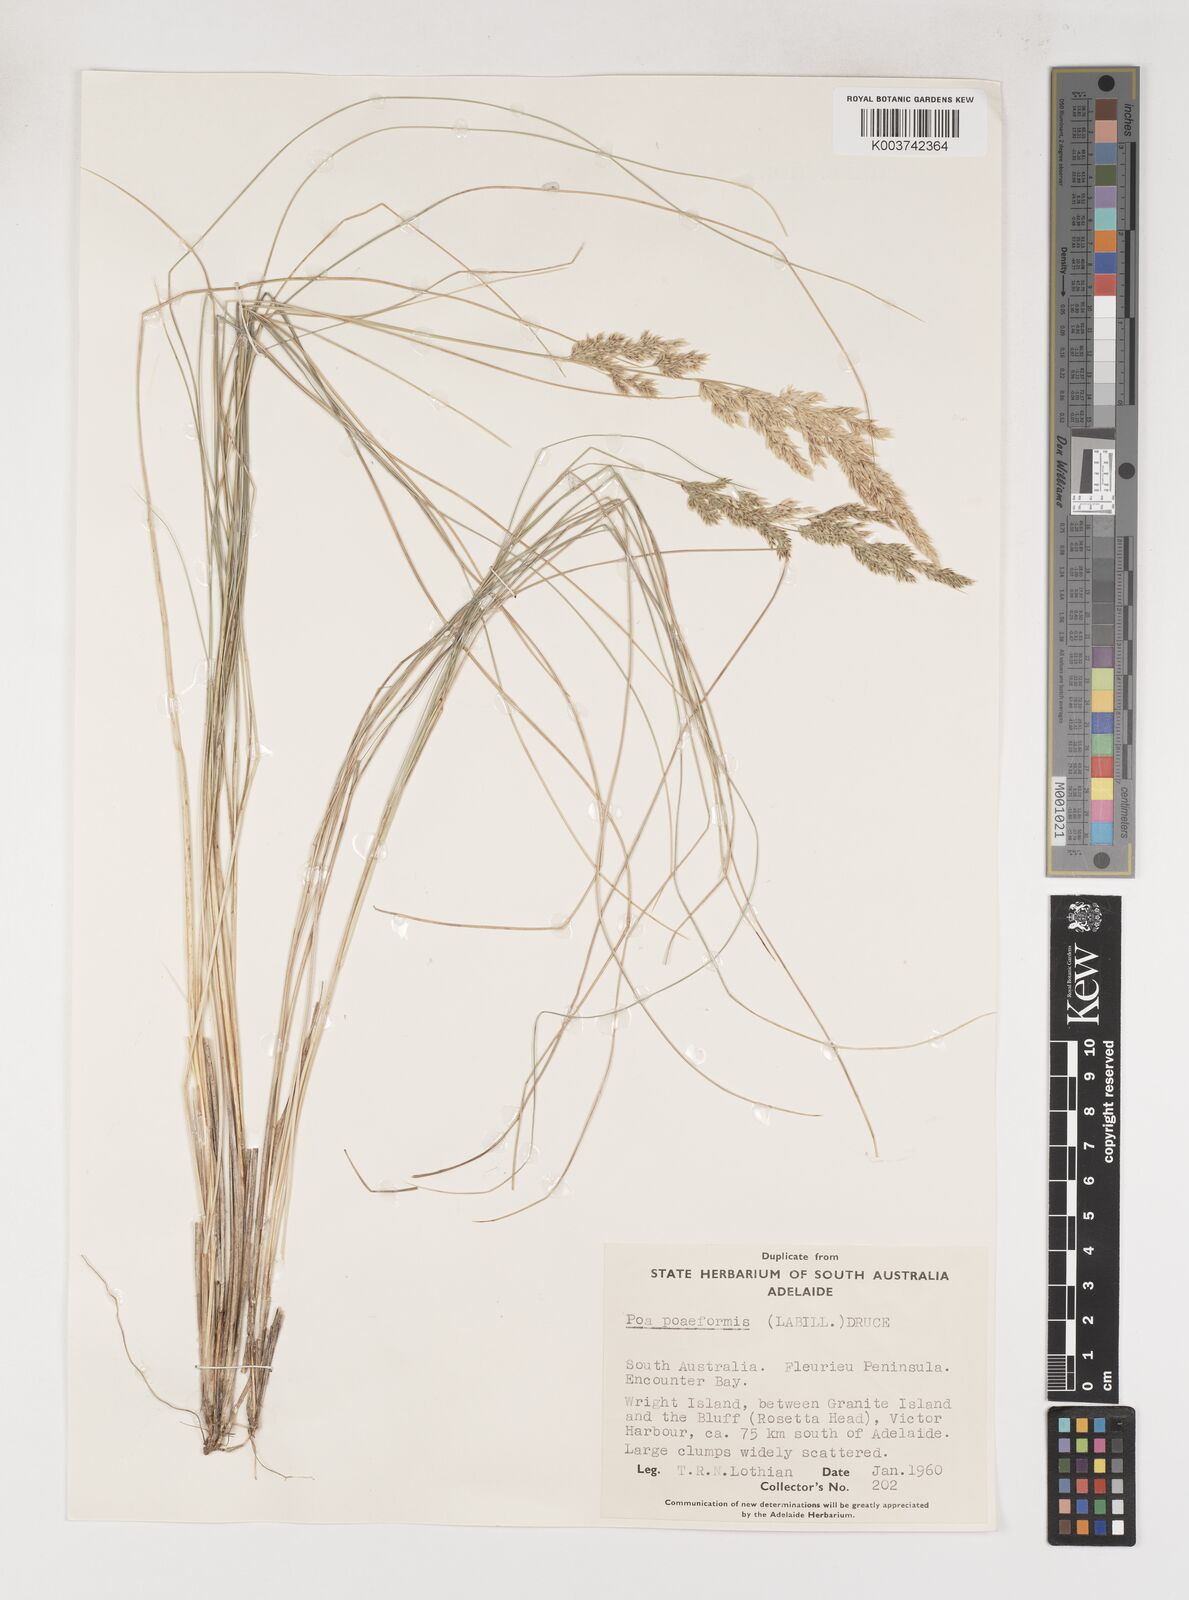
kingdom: Plantae
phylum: Tracheophyta
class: Liliopsida
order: Poales
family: Poaceae
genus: Poa
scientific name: Poa poiformis
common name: Tussock poa
